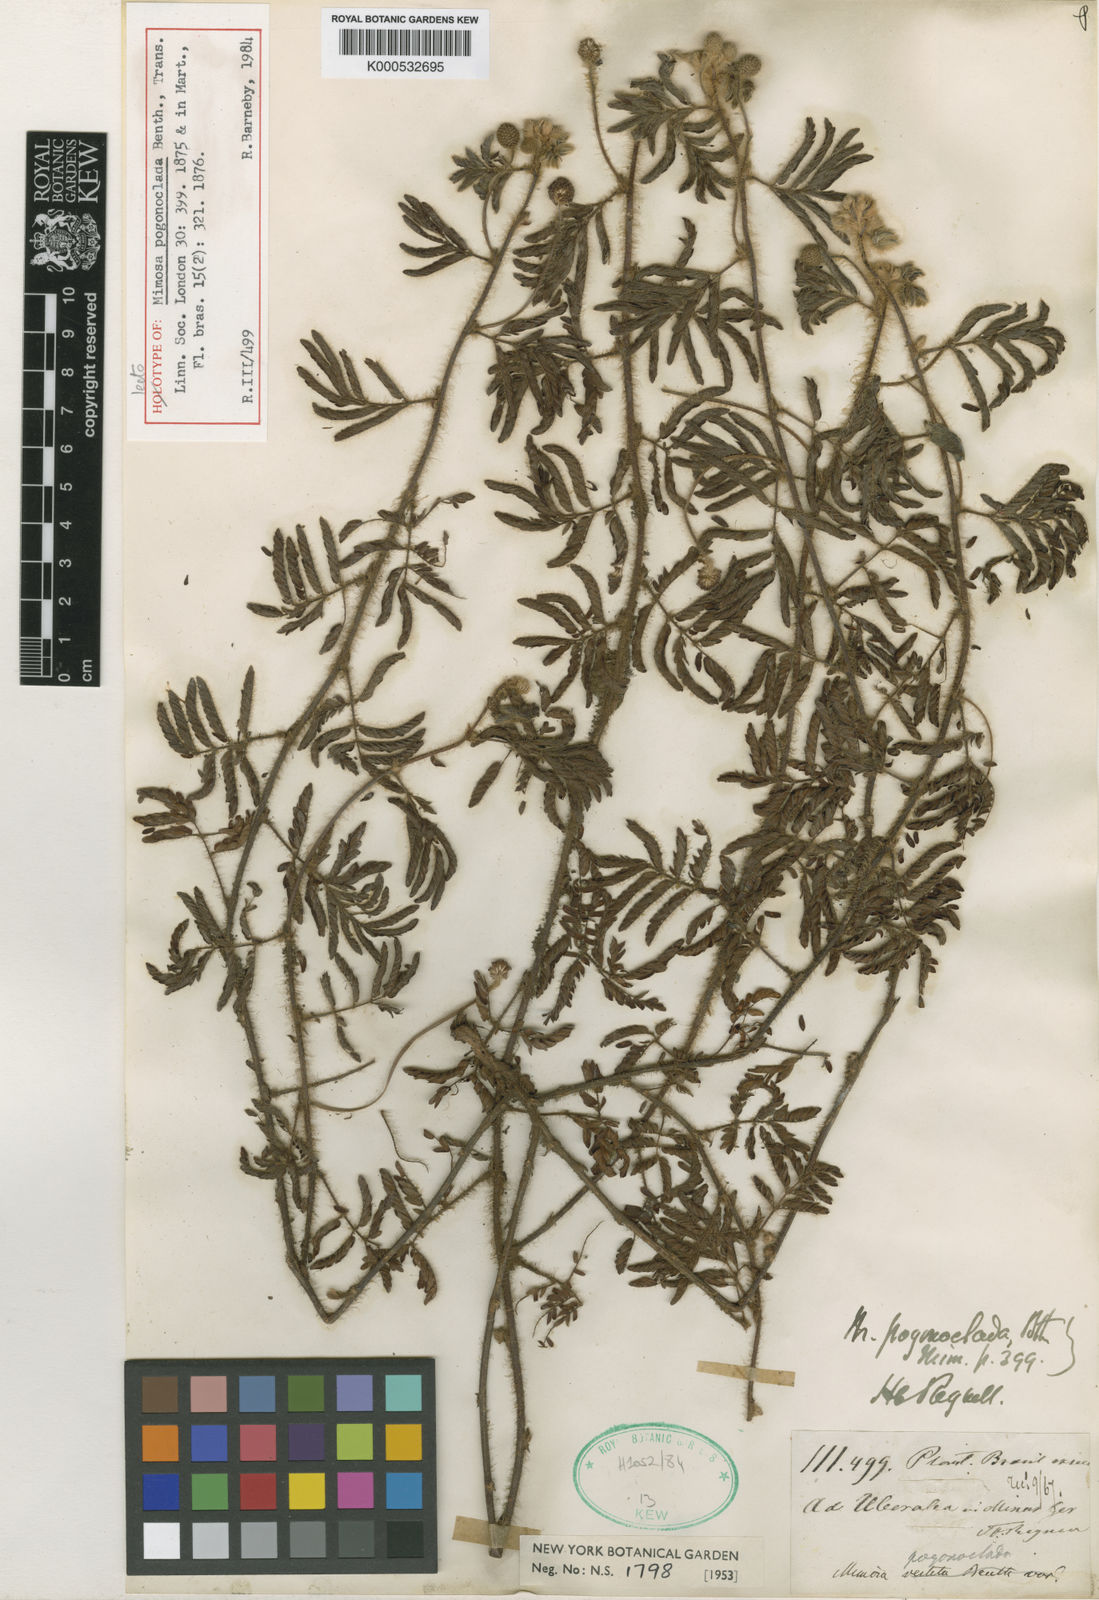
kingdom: Plantae
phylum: Tracheophyta
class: Magnoliopsida
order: Fabales
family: Fabaceae
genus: Mimosa
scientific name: Mimosa pogonoclada
